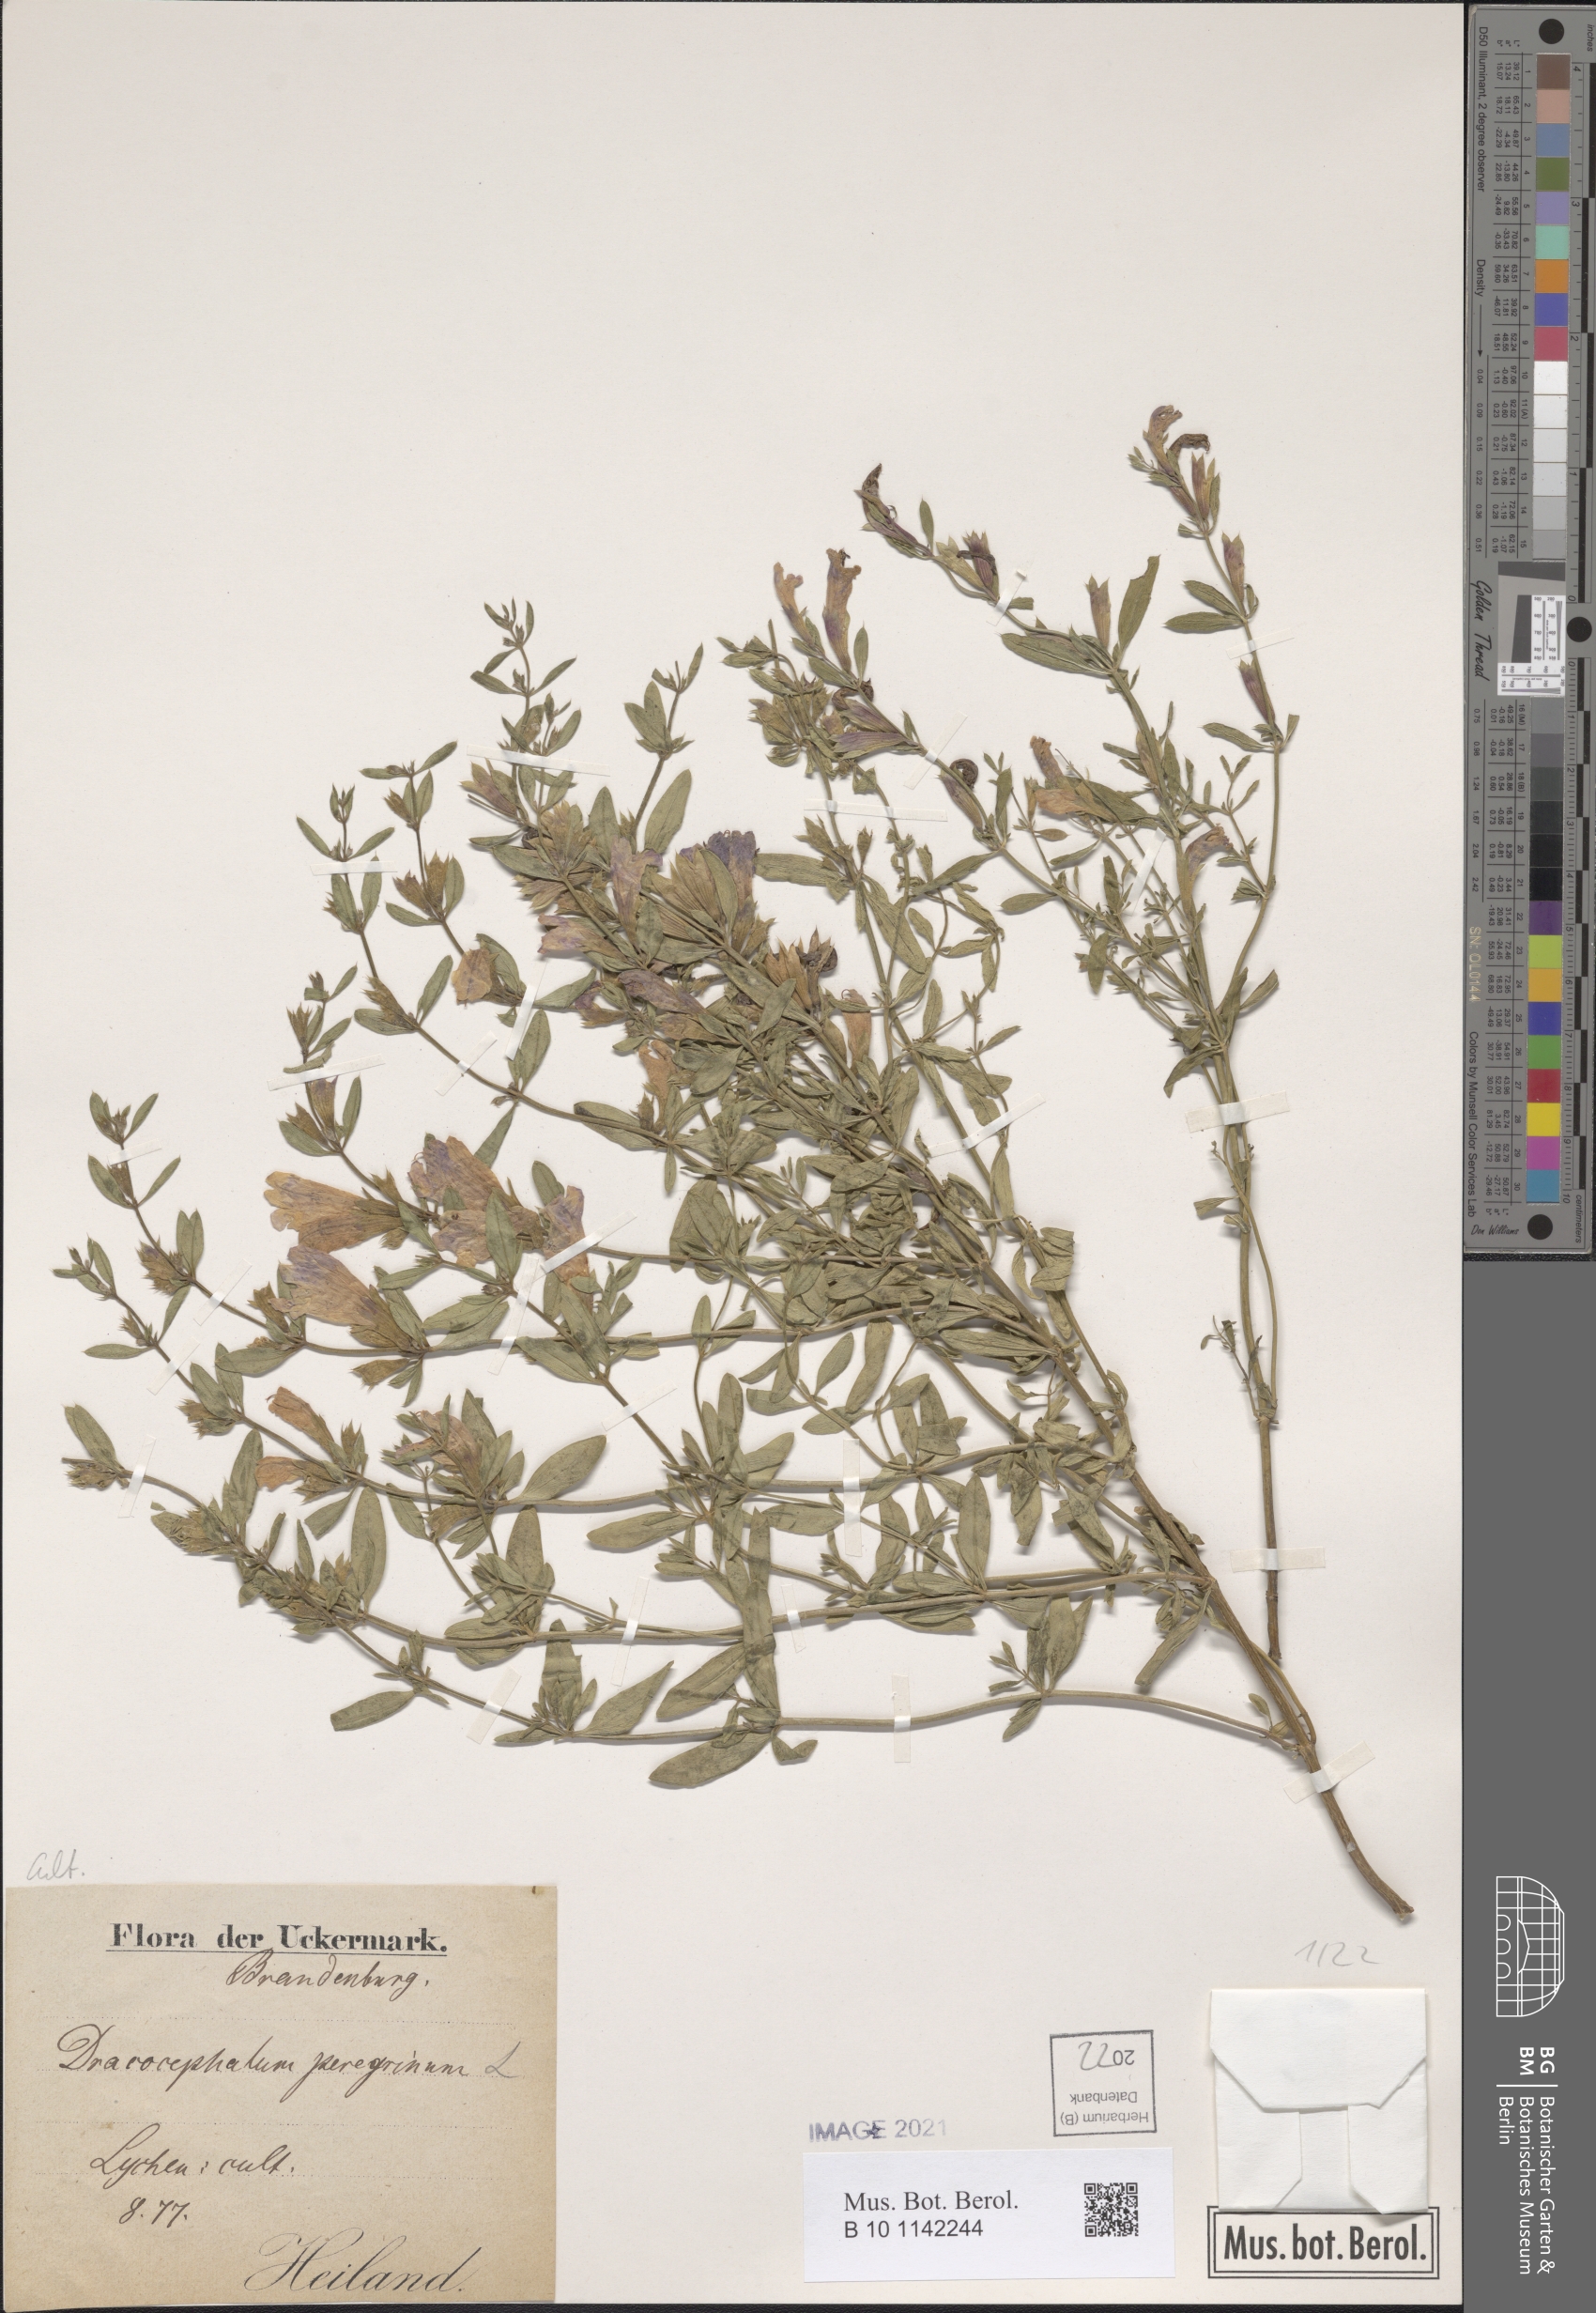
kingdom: Plantae
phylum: Tracheophyta
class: Magnoliopsida
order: Lamiales
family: Lamiaceae
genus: Dracocephalum
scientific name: Dracocephalum peregrinum
